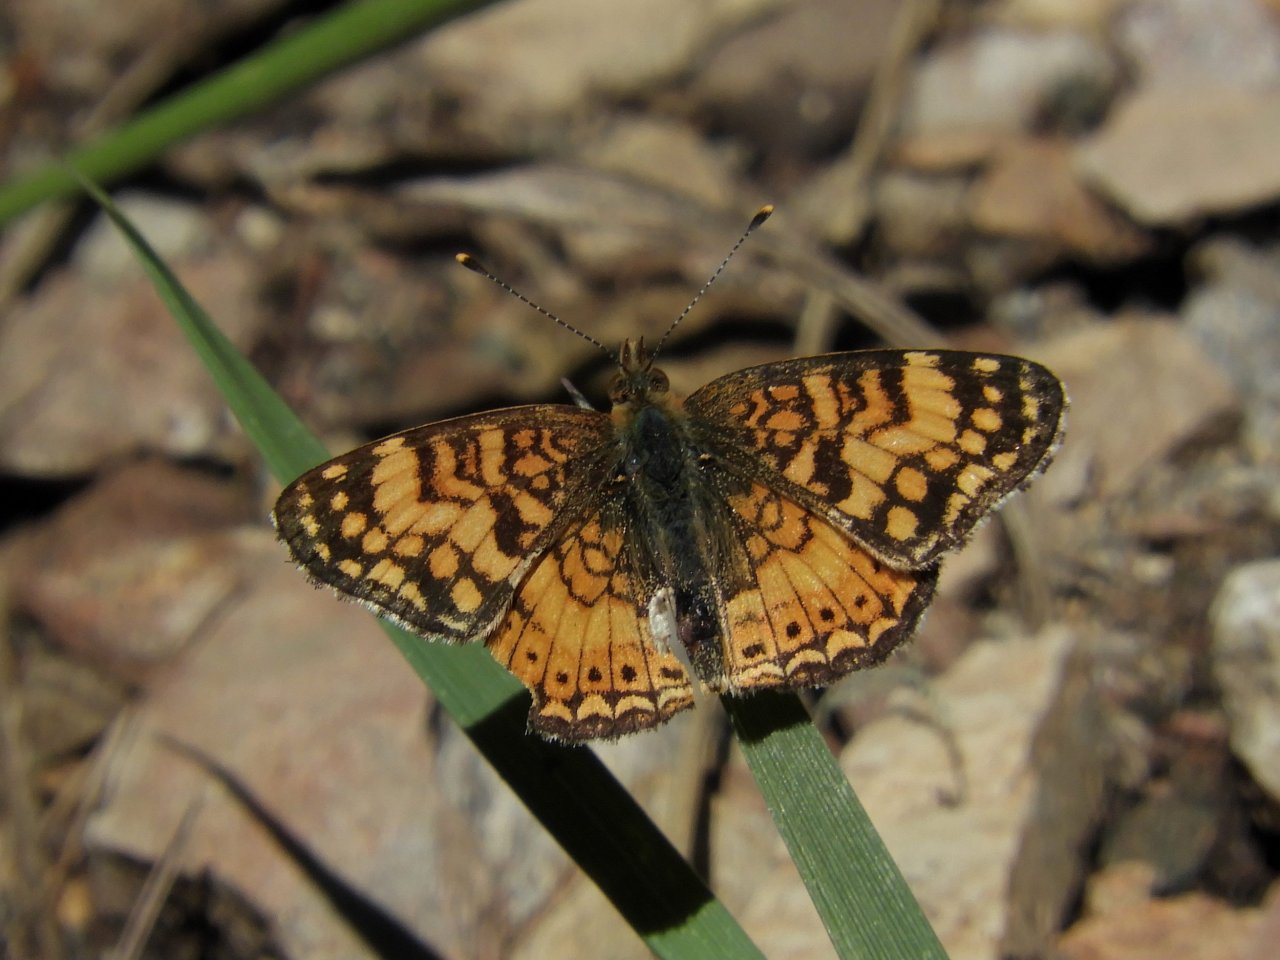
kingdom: Animalia
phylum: Arthropoda
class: Insecta
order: Lepidoptera
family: Nymphalidae
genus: Eresia
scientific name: Eresia aveyrona
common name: Mylitta Crescent
